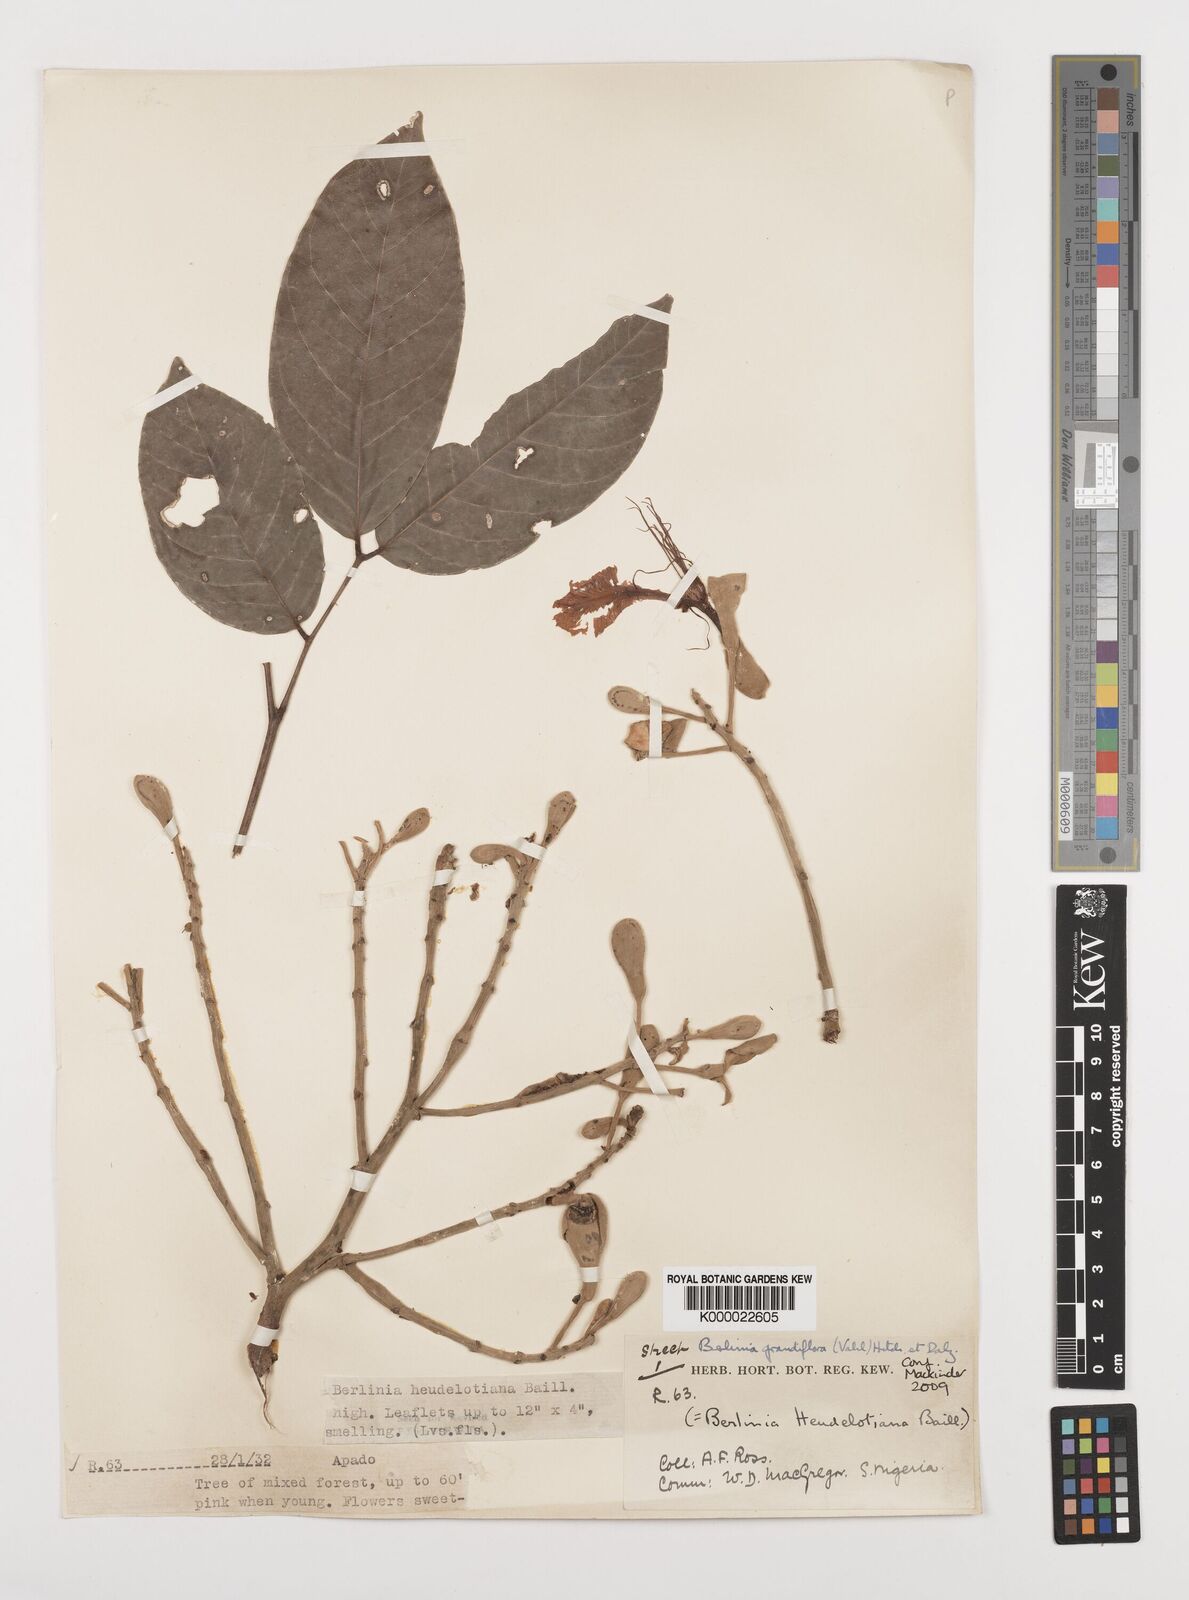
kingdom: Plantae
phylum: Tracheophyta
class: Magnoliopsida
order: Fabales
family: Fabaceae
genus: Berlinia
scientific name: Berlinia grandiflora
